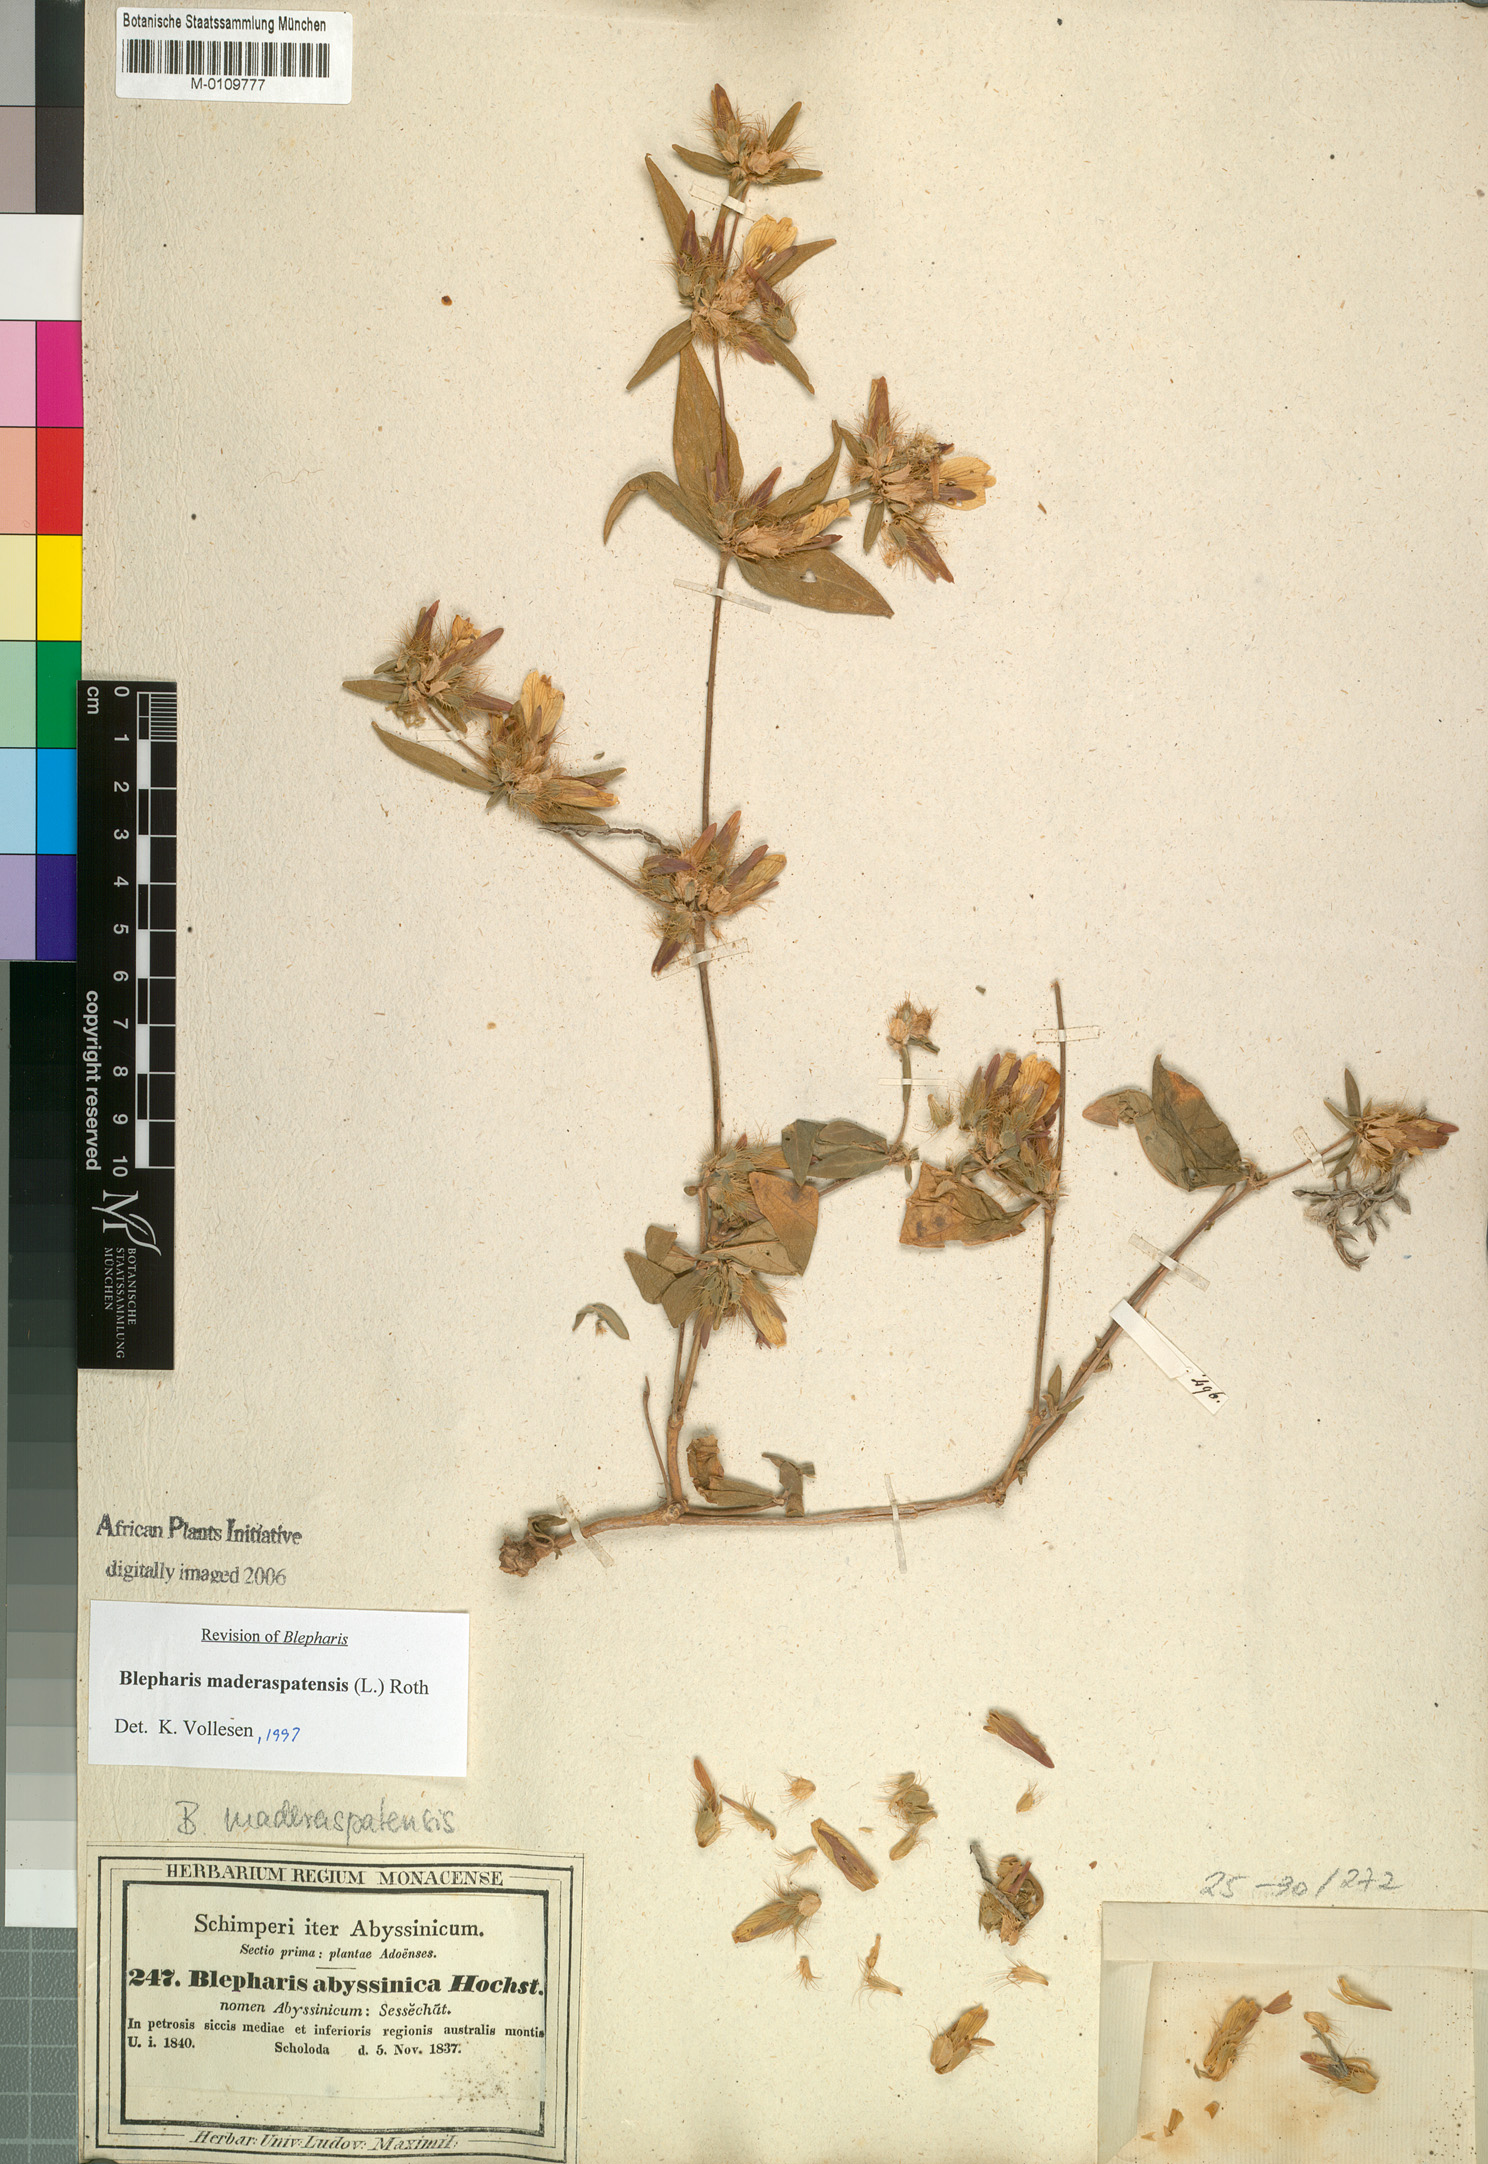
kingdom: Plantae
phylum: Tracheophyta
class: Magnoliopsida
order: Lamiales
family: Acanthaceae
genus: Blepharis
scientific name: Blepharis maderaspatensis
